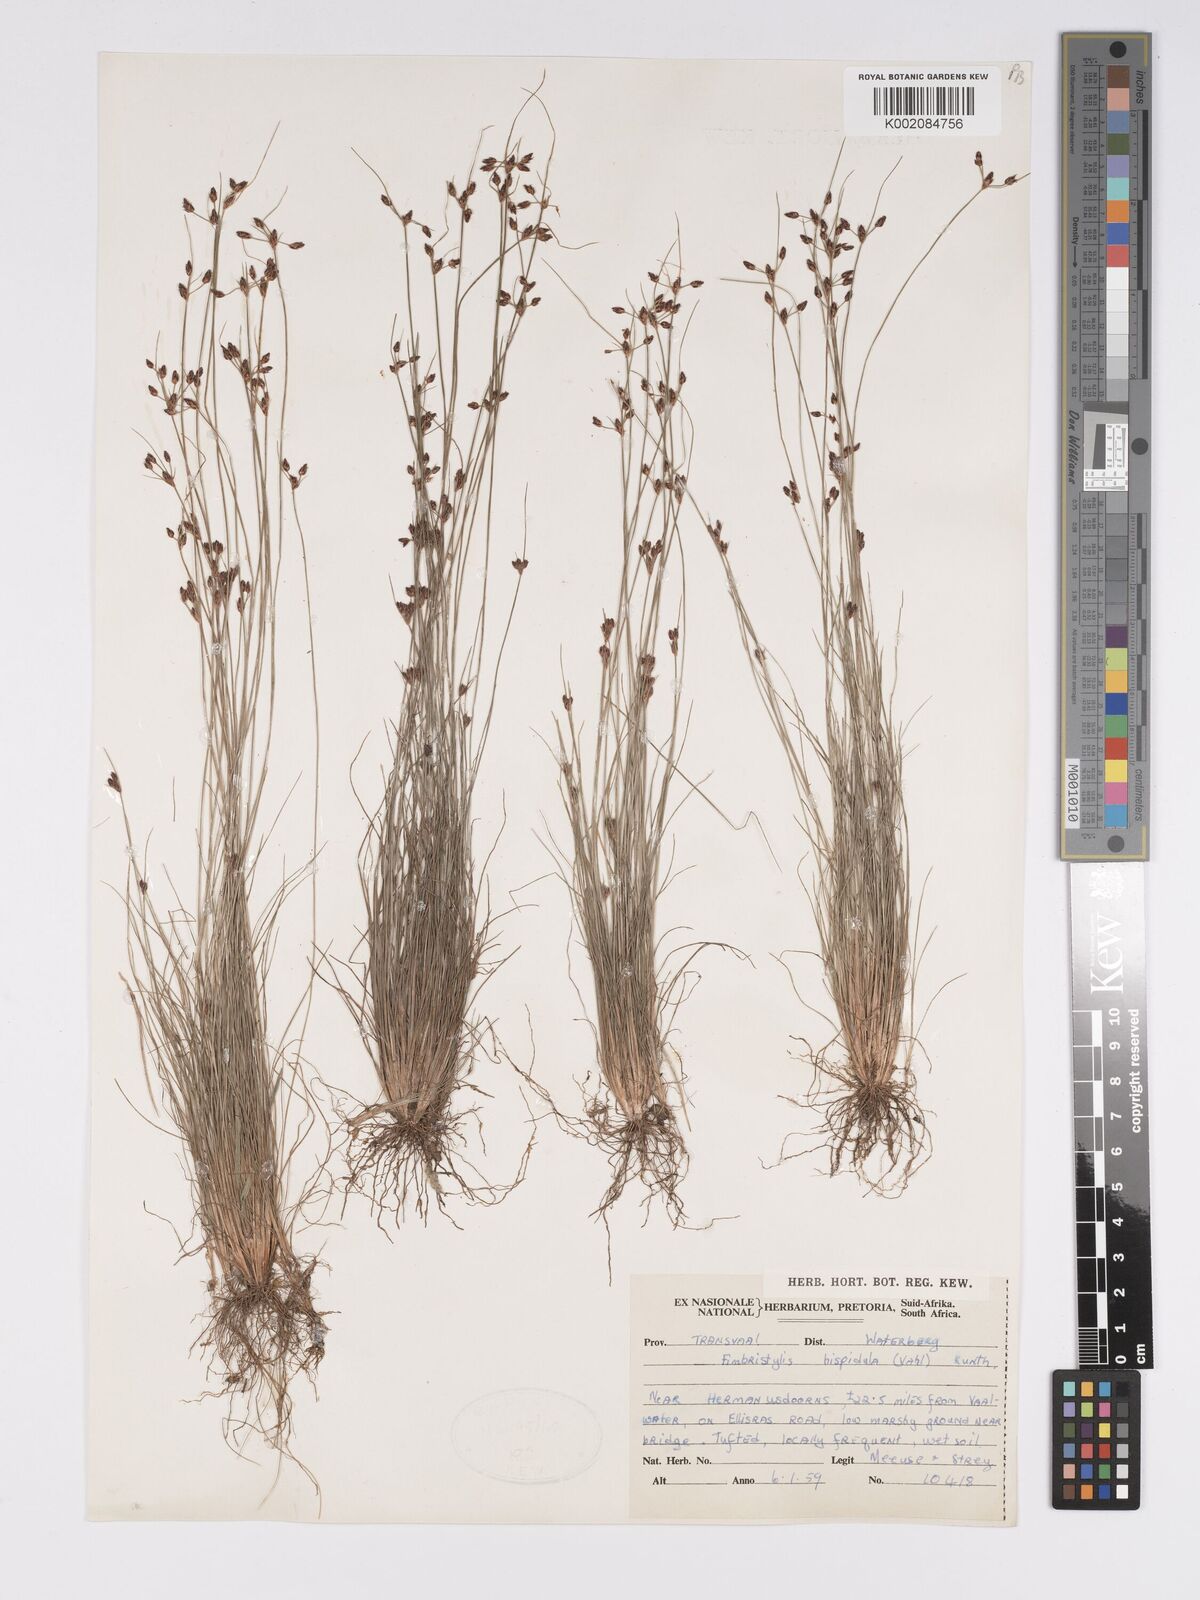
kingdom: Plantae
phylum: Tracheophyta
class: Liliopsida
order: Poales
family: Cyperaceae
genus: Bulbostylis
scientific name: Bulbostylis
